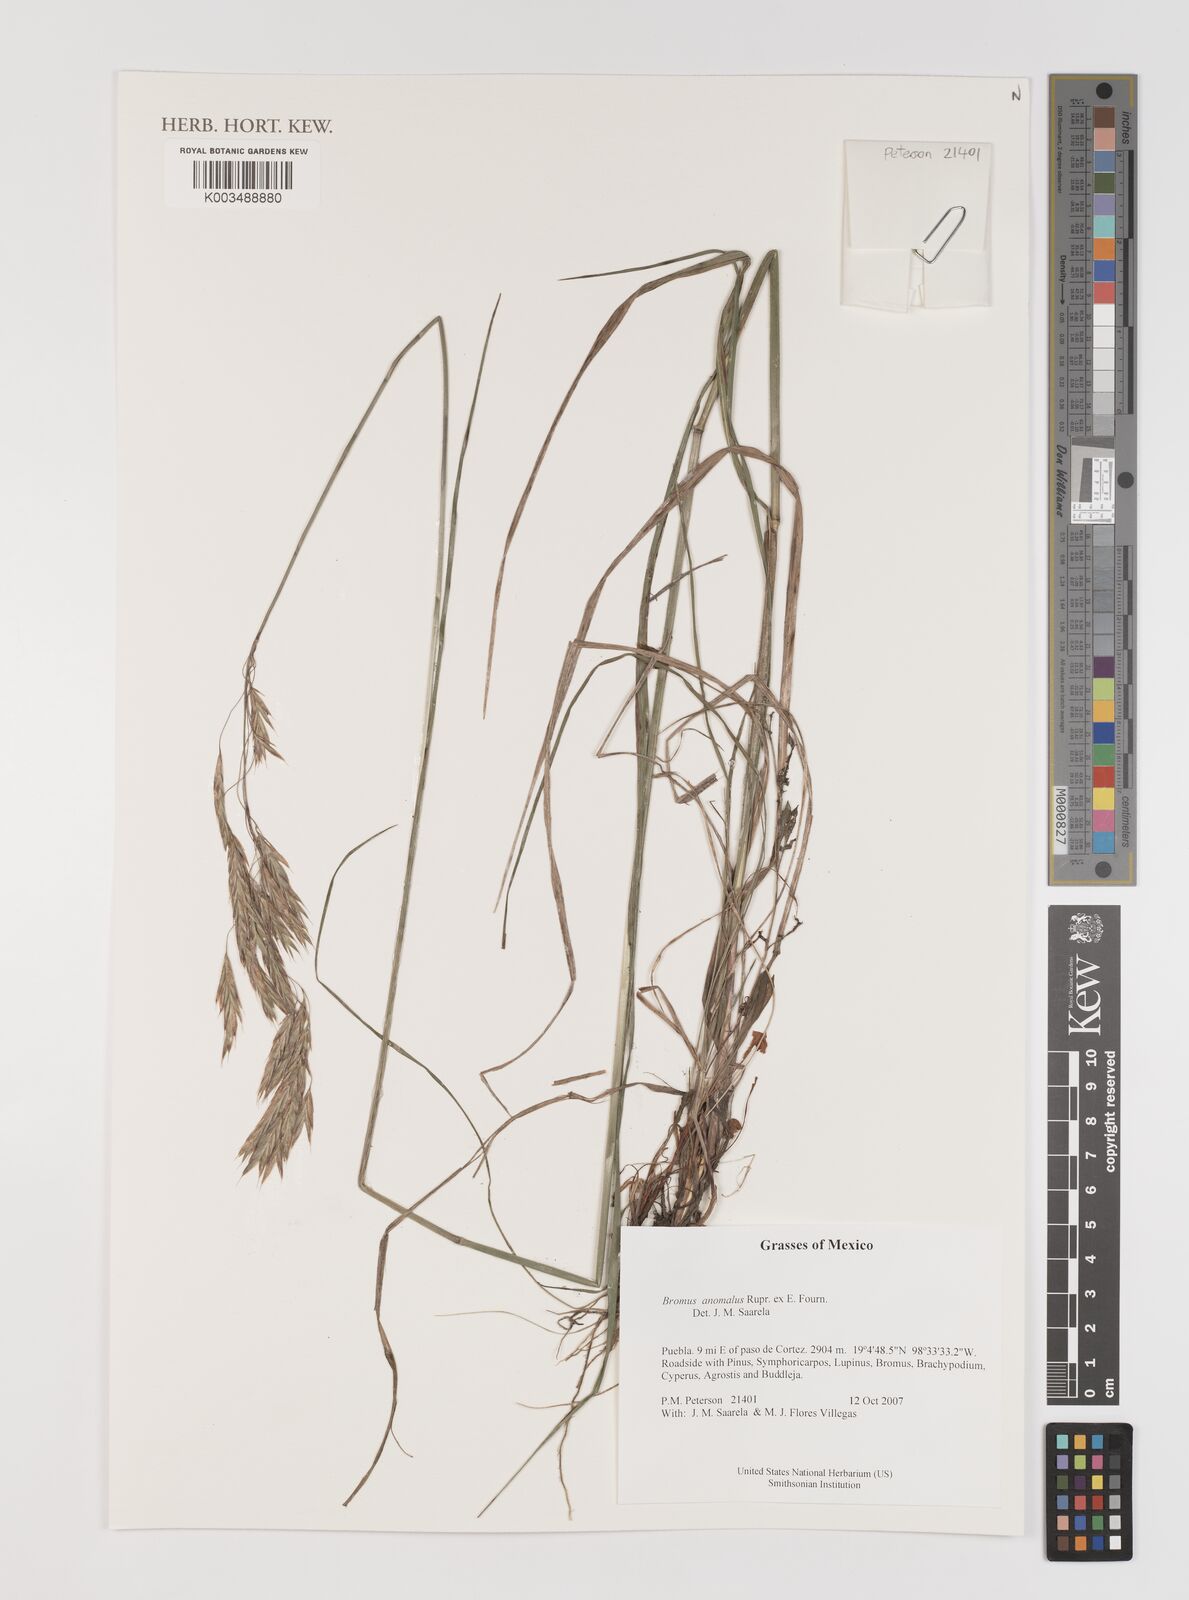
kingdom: Plantae
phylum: Tracheophyta
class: Liliopsida
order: Poales
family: Poaceae
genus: Bromus
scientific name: Bromus anomalus
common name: Nodding brome
